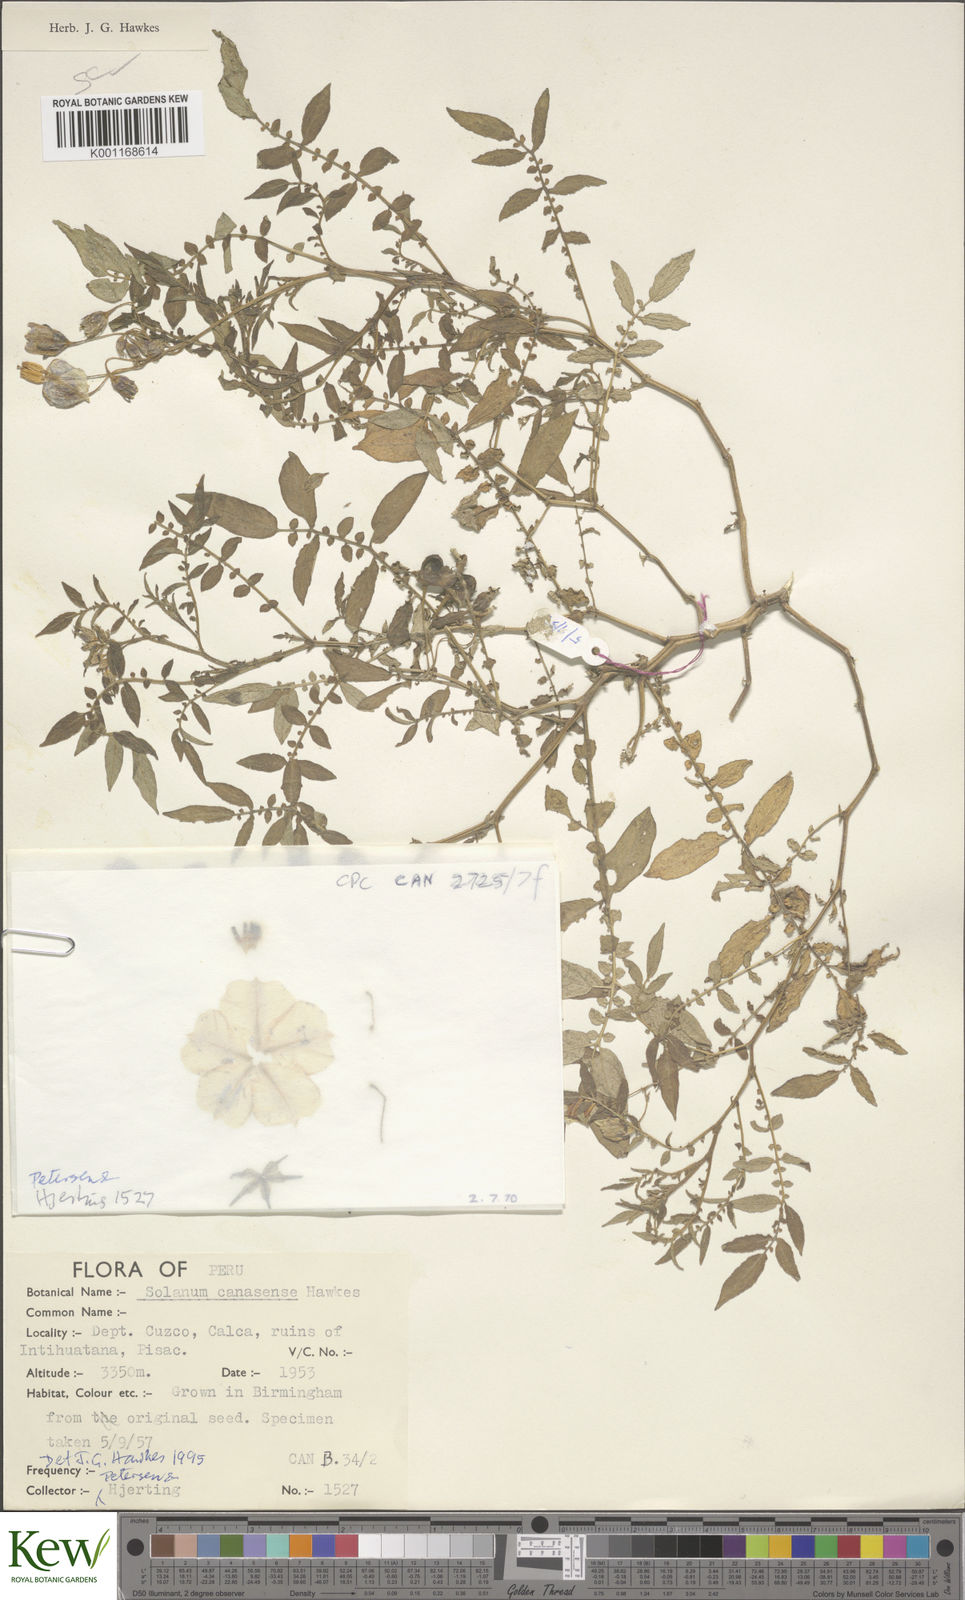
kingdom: Plantae
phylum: Tracheophyta
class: Magnoliopsida
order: Solanales
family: Solanaceae
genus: Solanum
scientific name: Solanum candolleanum
